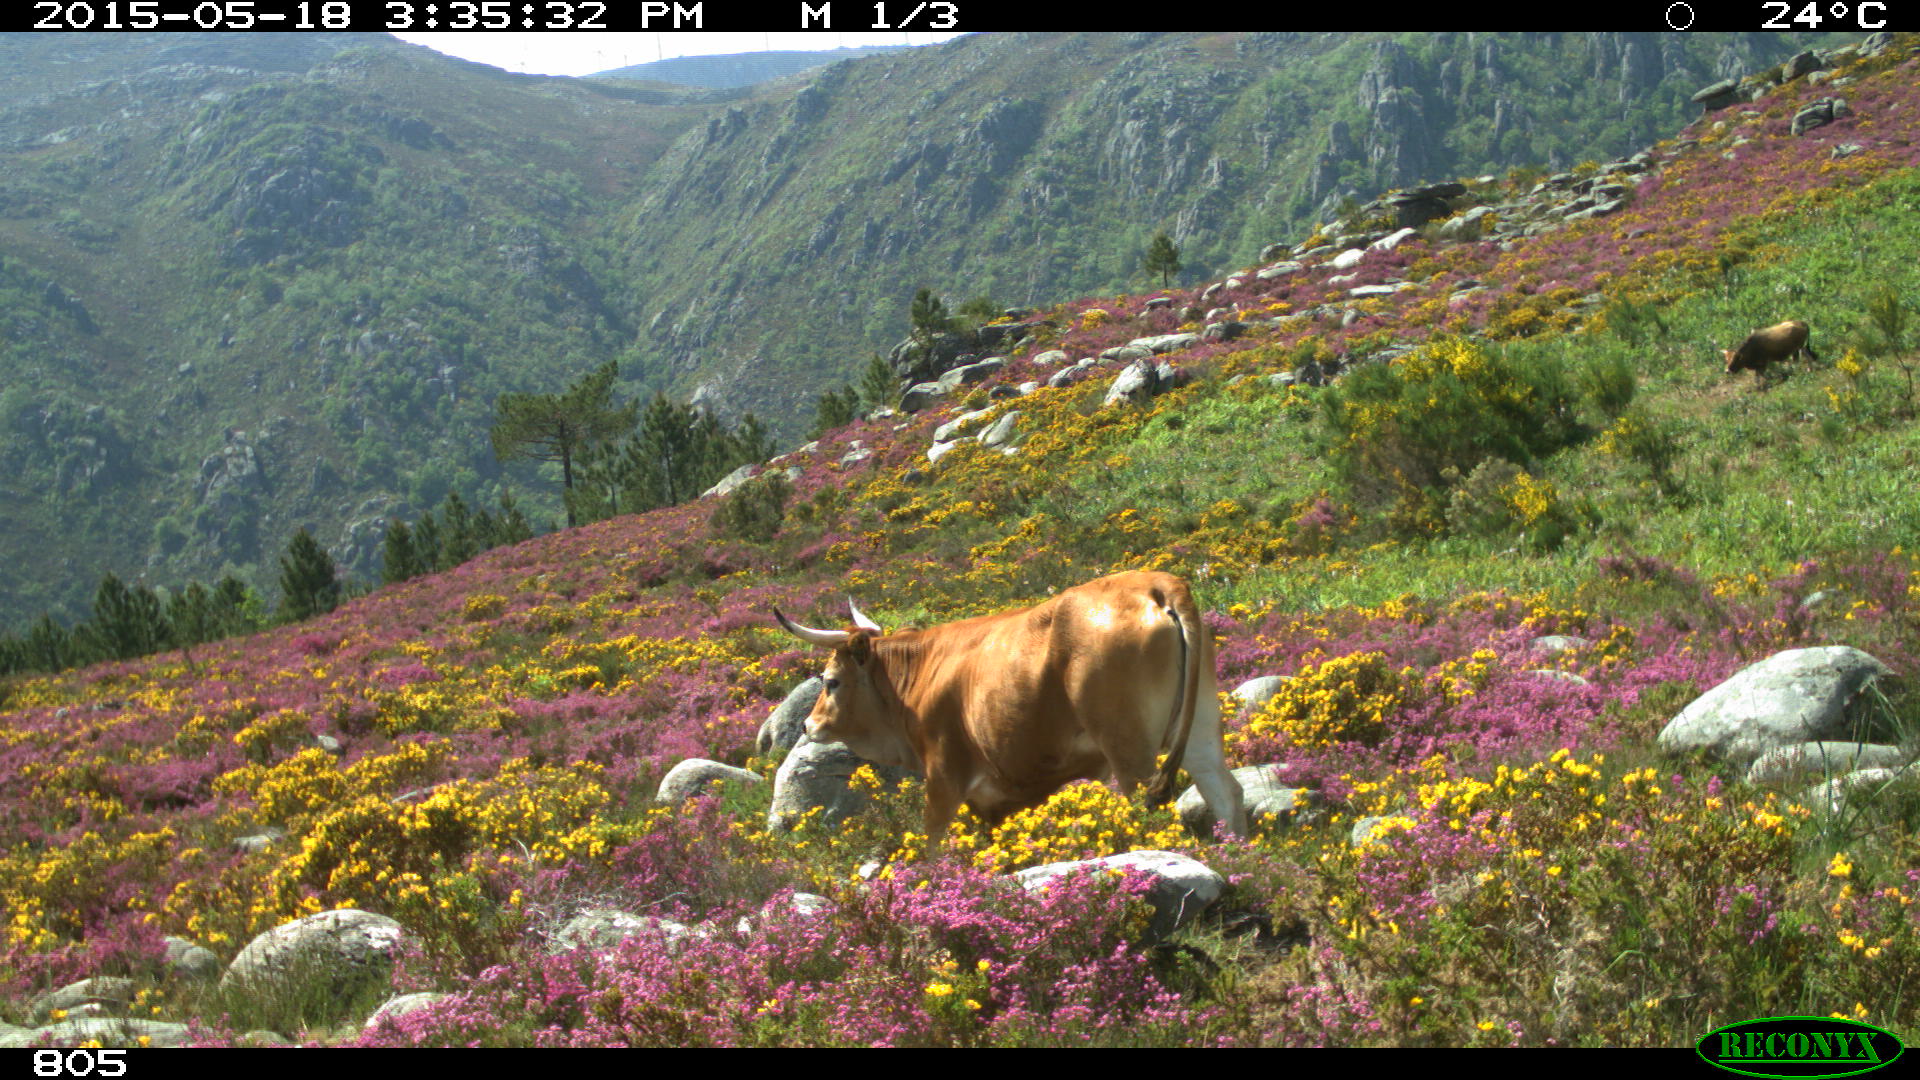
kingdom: Animalia
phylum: Chordata
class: Mammalia
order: Artiodactyla
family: Bovidae
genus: Bos
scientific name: Bos taurus
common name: Domesticated cattle
